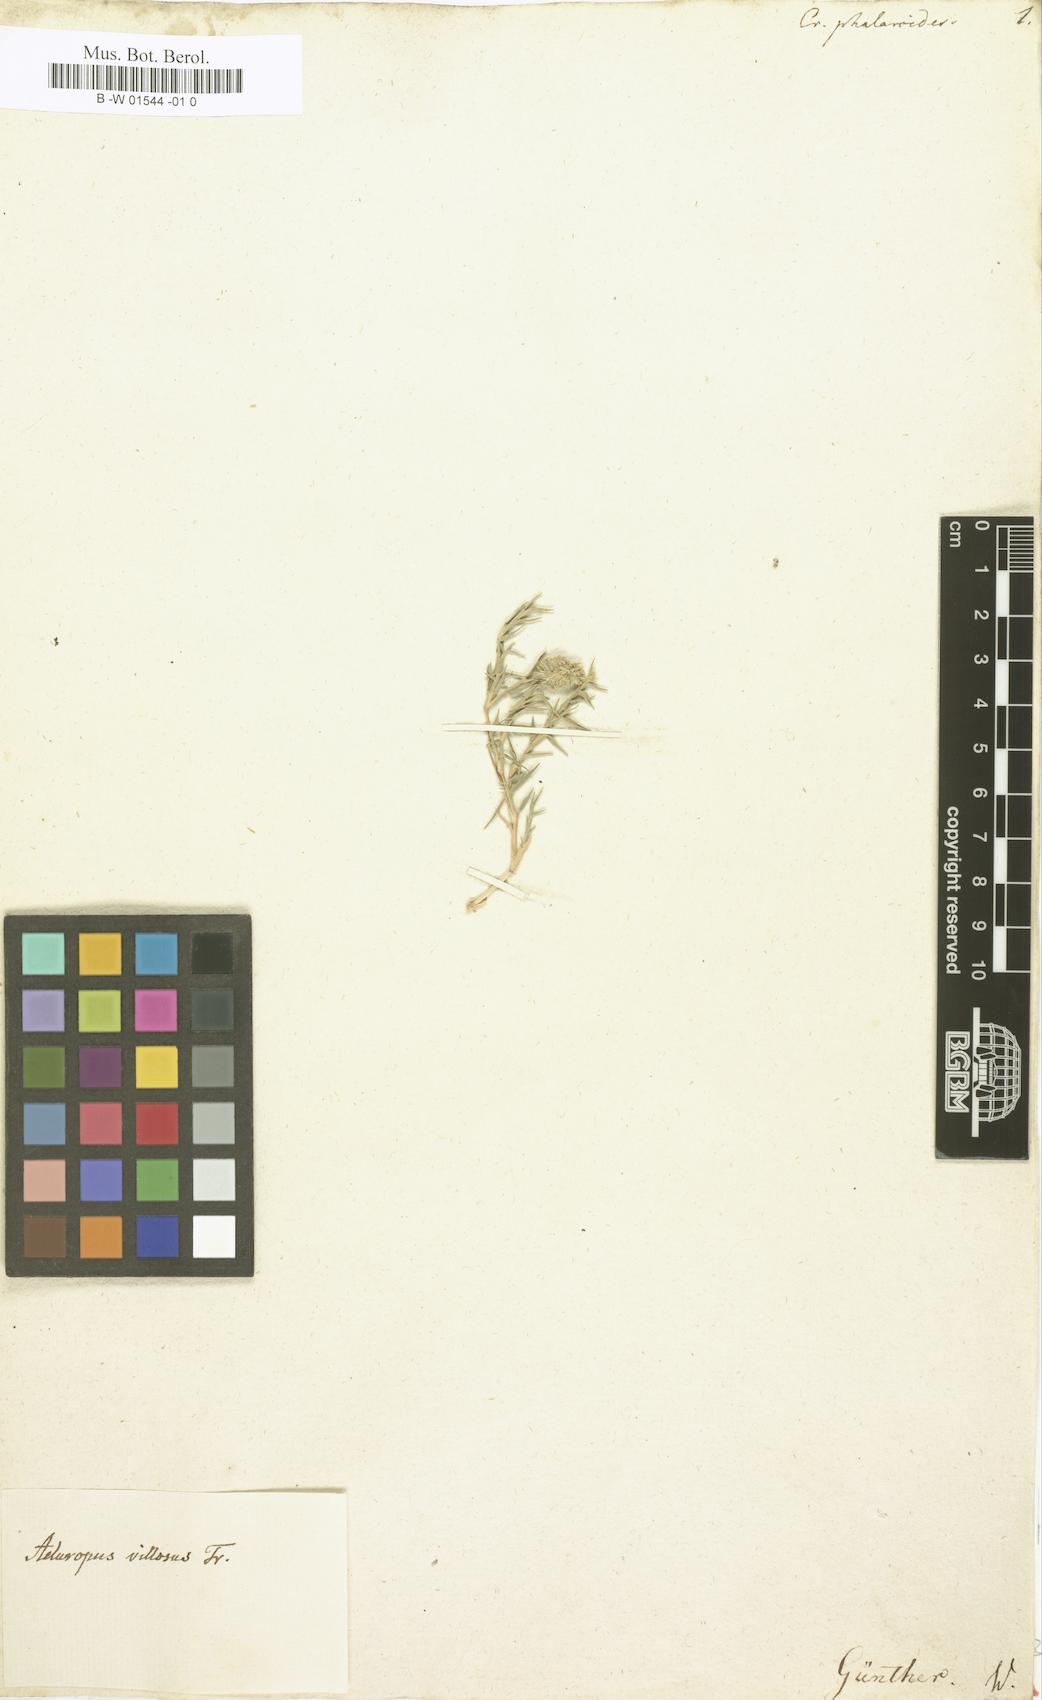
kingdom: Plantae
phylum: Tracheophyta
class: Liliopsida
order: Poales
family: Poaceae
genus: Sporobolus
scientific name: Sporobolus alopecuroides
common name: Foxtail pricklegrass
